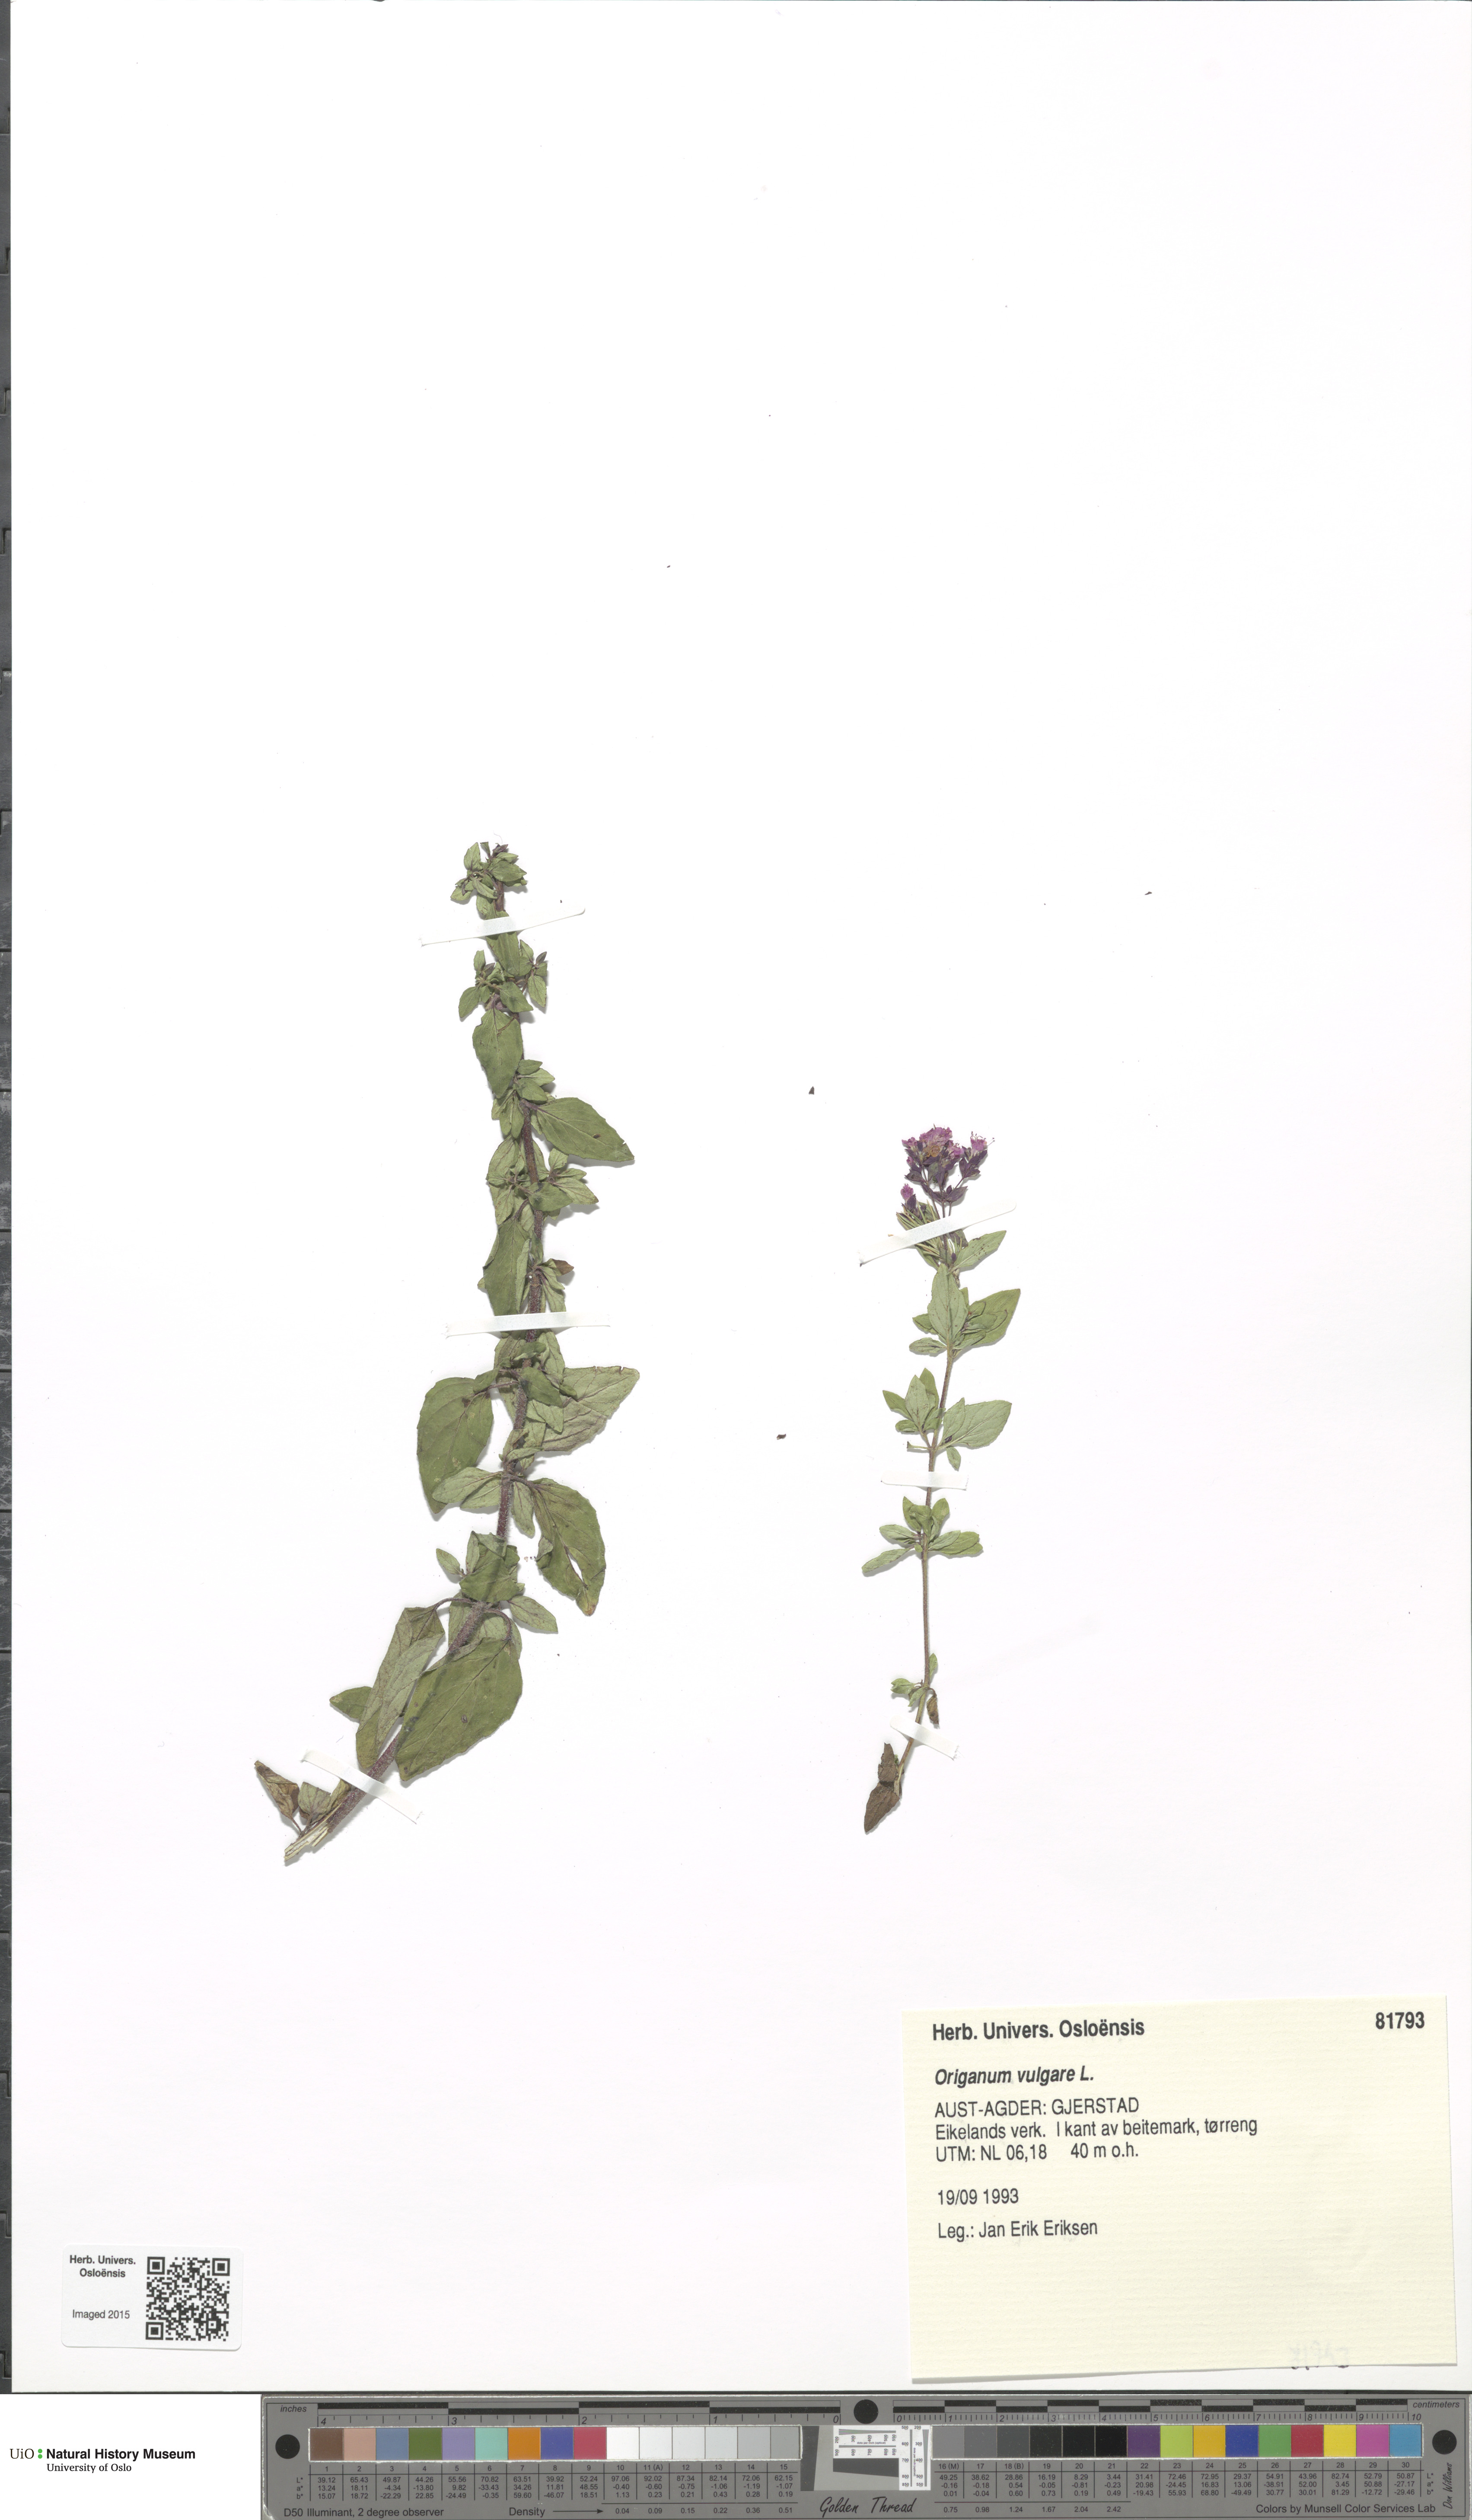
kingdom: Plantae
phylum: Tracheophyta
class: Magnoliopsida
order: Lamiales
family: Lamiaceae
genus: Origanum
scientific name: Origanum vulgare
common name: Wild marjoram
